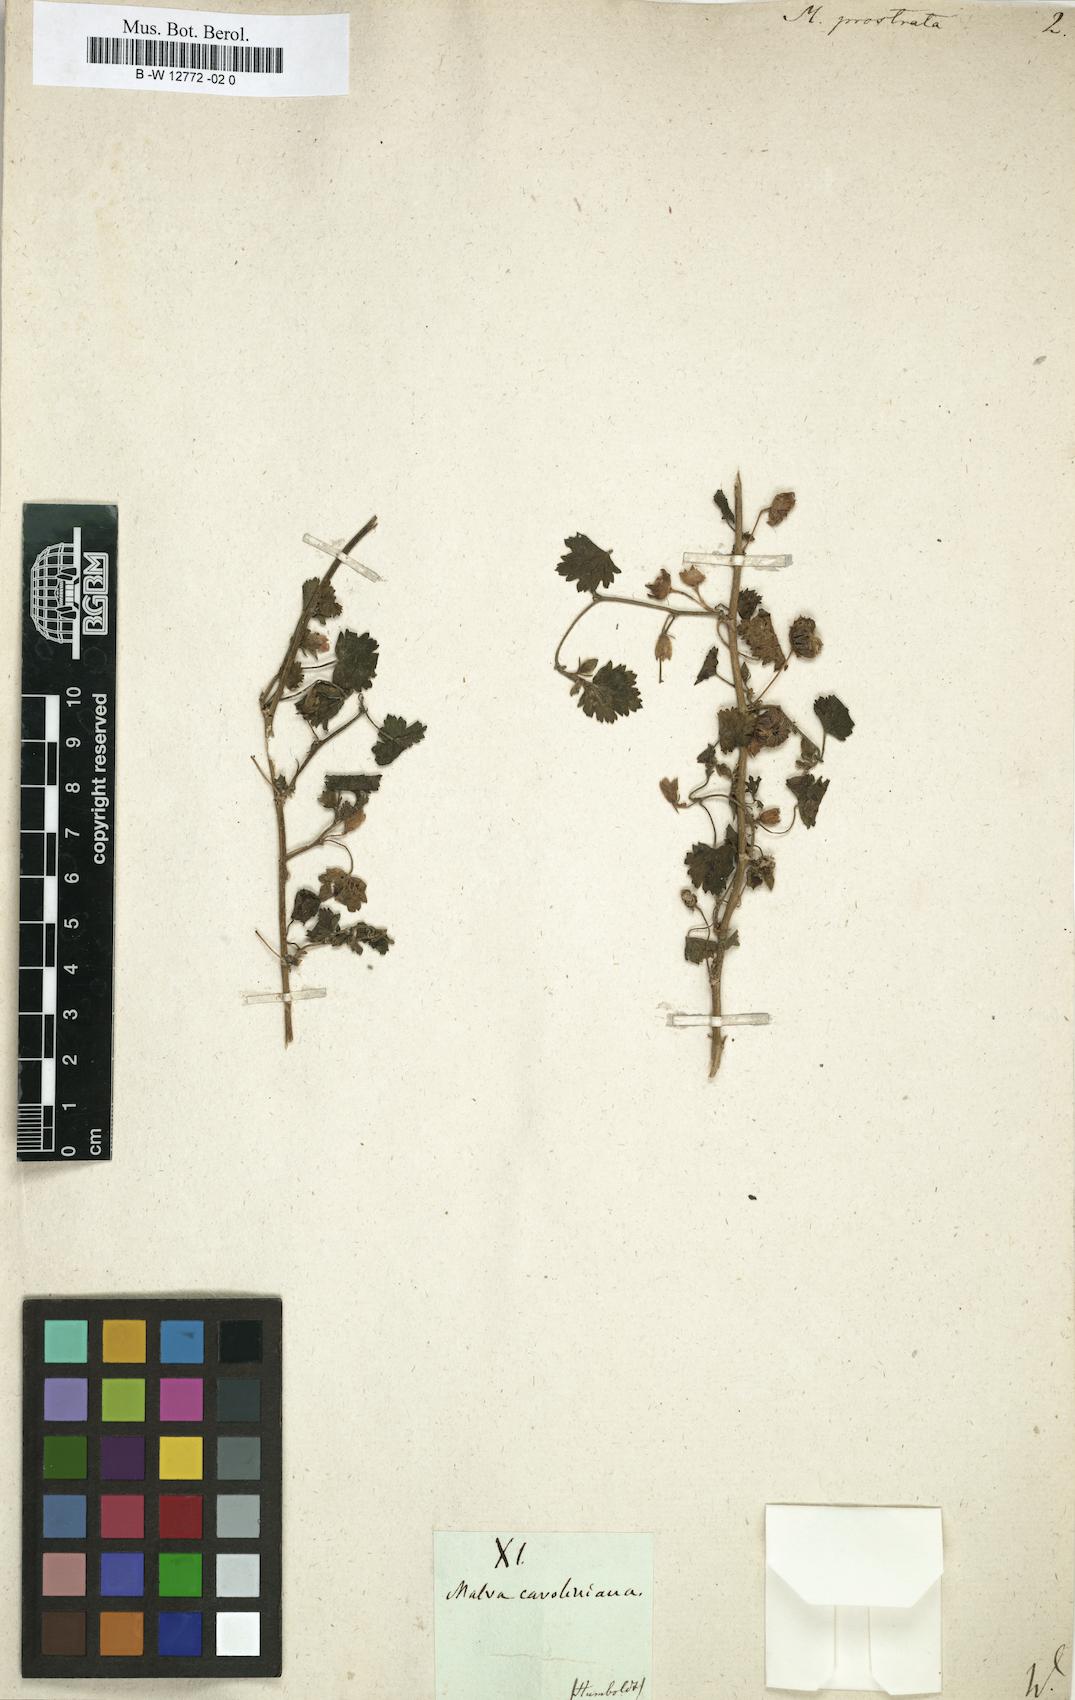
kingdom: Plantae
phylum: Tracheophyta
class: Magnoliopsida
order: Malvales
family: Malvaceae
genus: Modiola
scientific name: Modiola caroliniana
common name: Carolina bristlemallow
